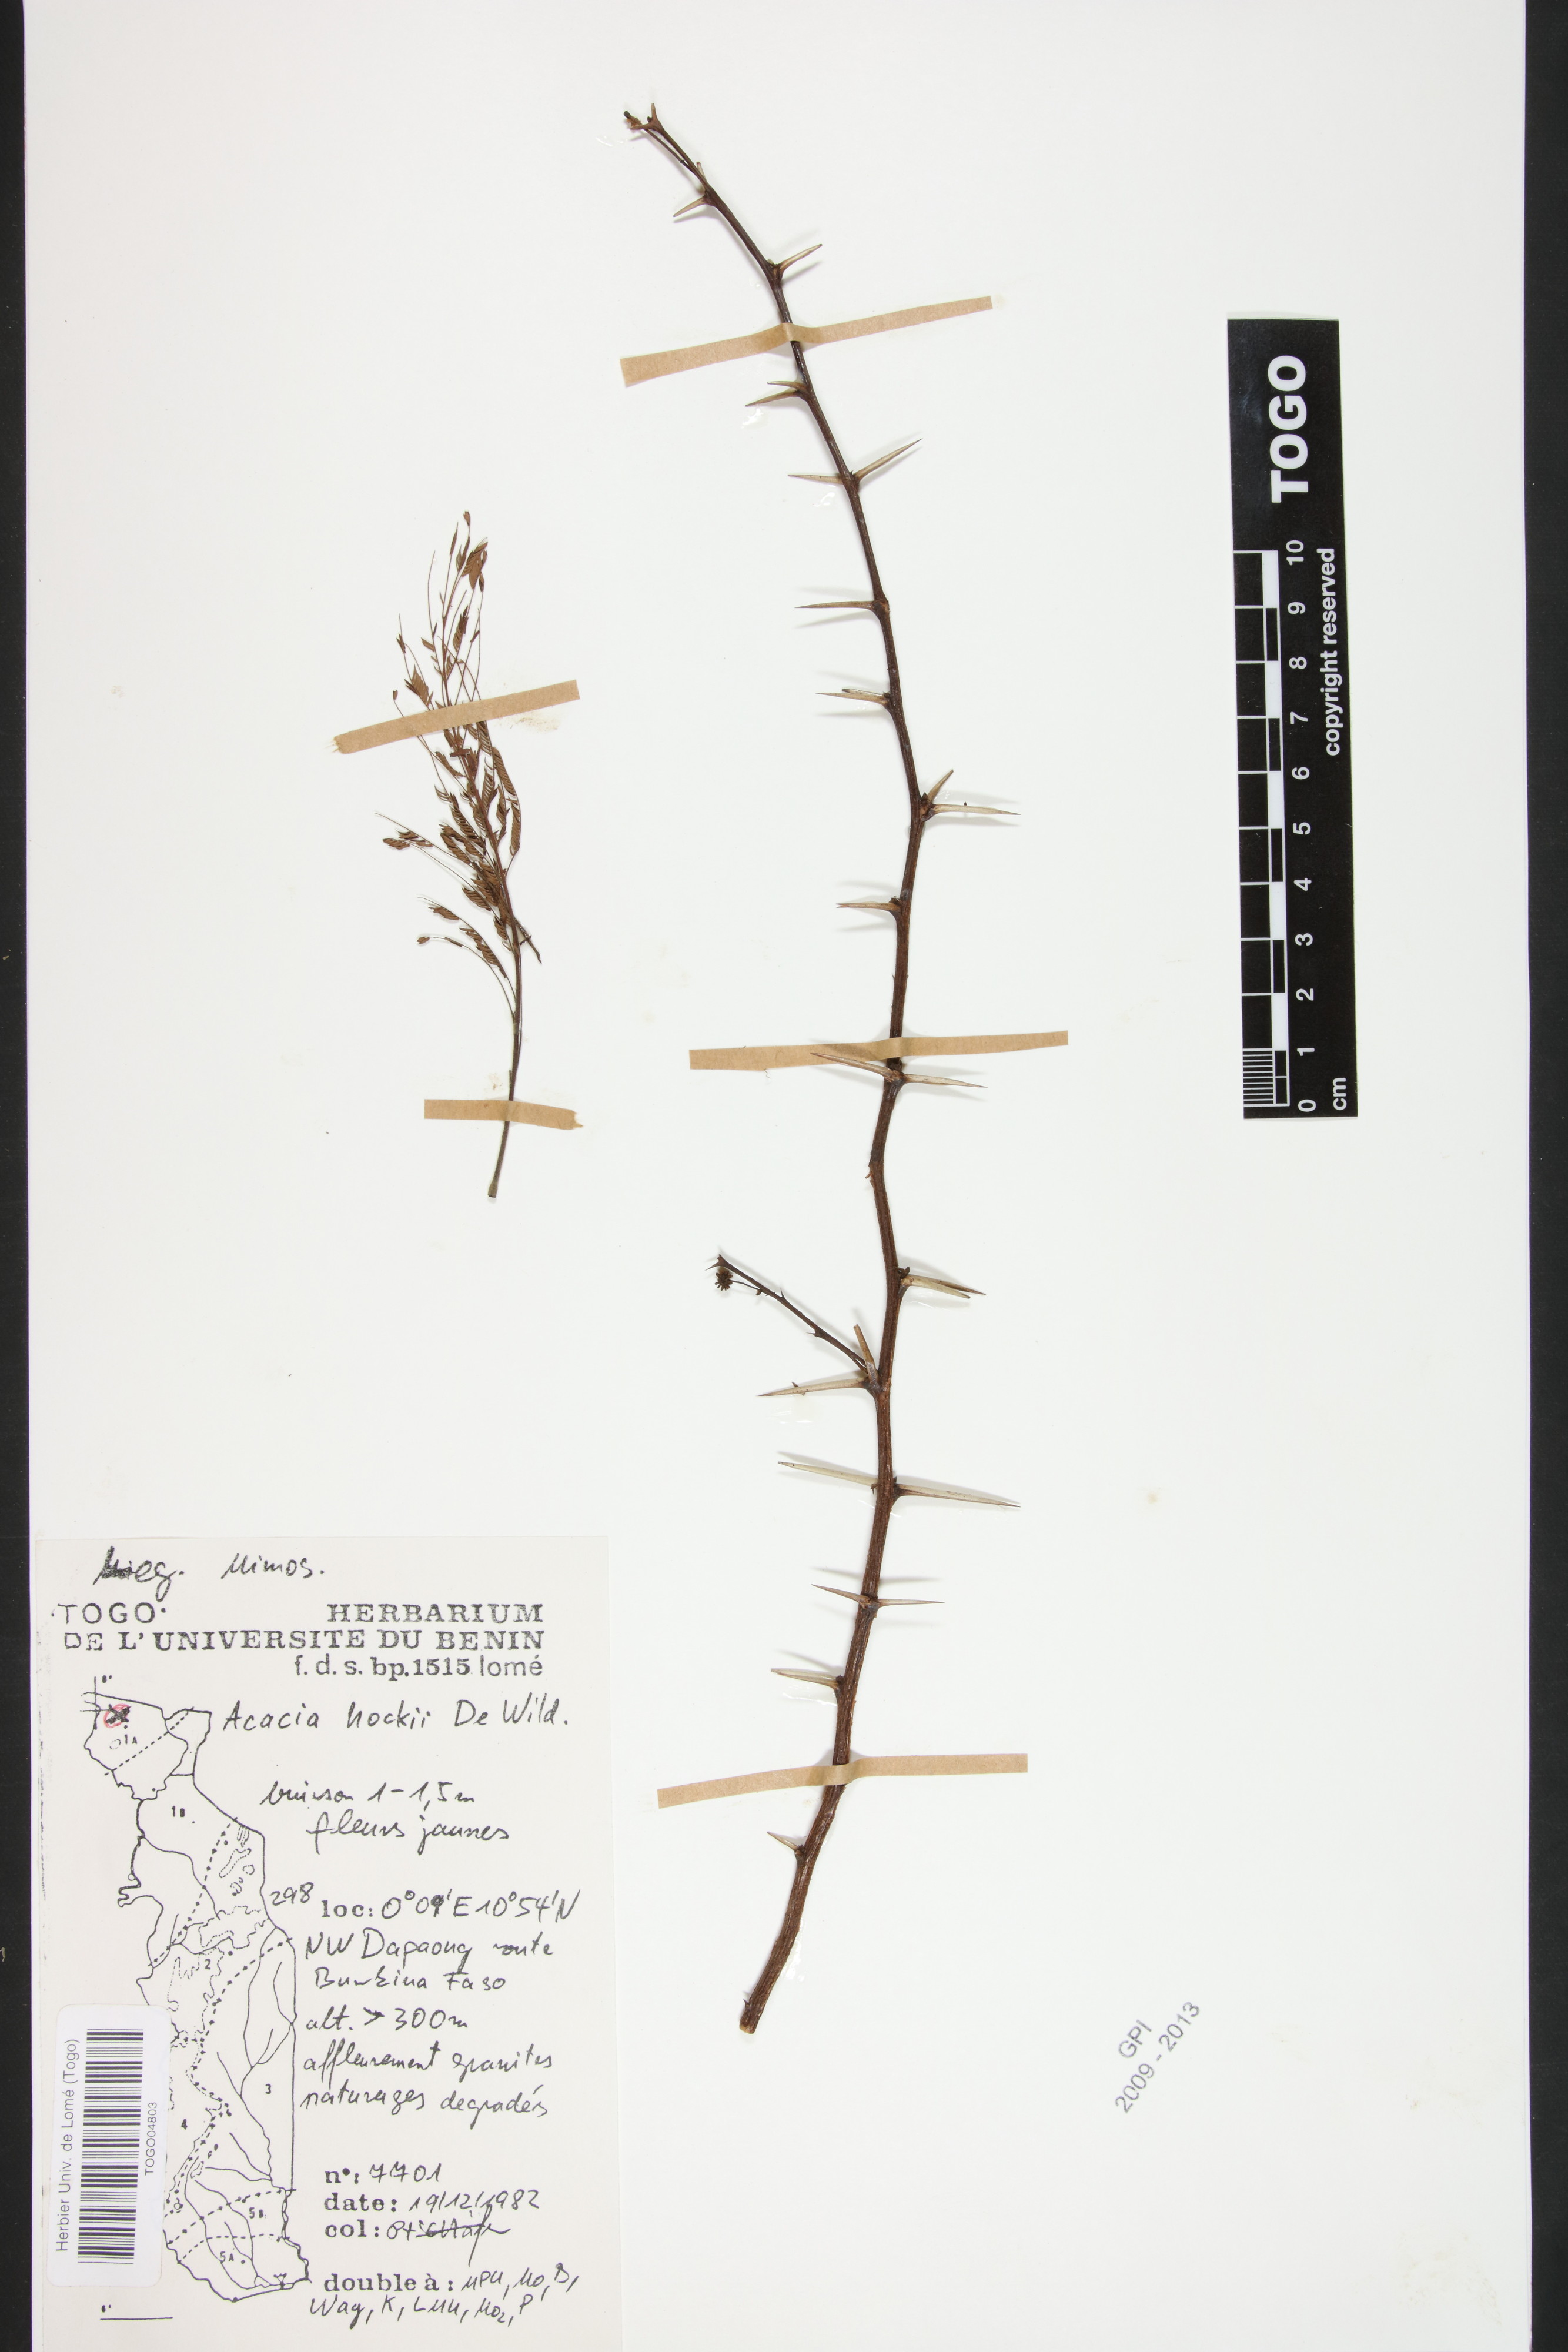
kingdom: Plantae
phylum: Tracheophyta
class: Magnoliopsida
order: Fabales
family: Fabaceae
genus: Vachellia
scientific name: Vachellia hockii
